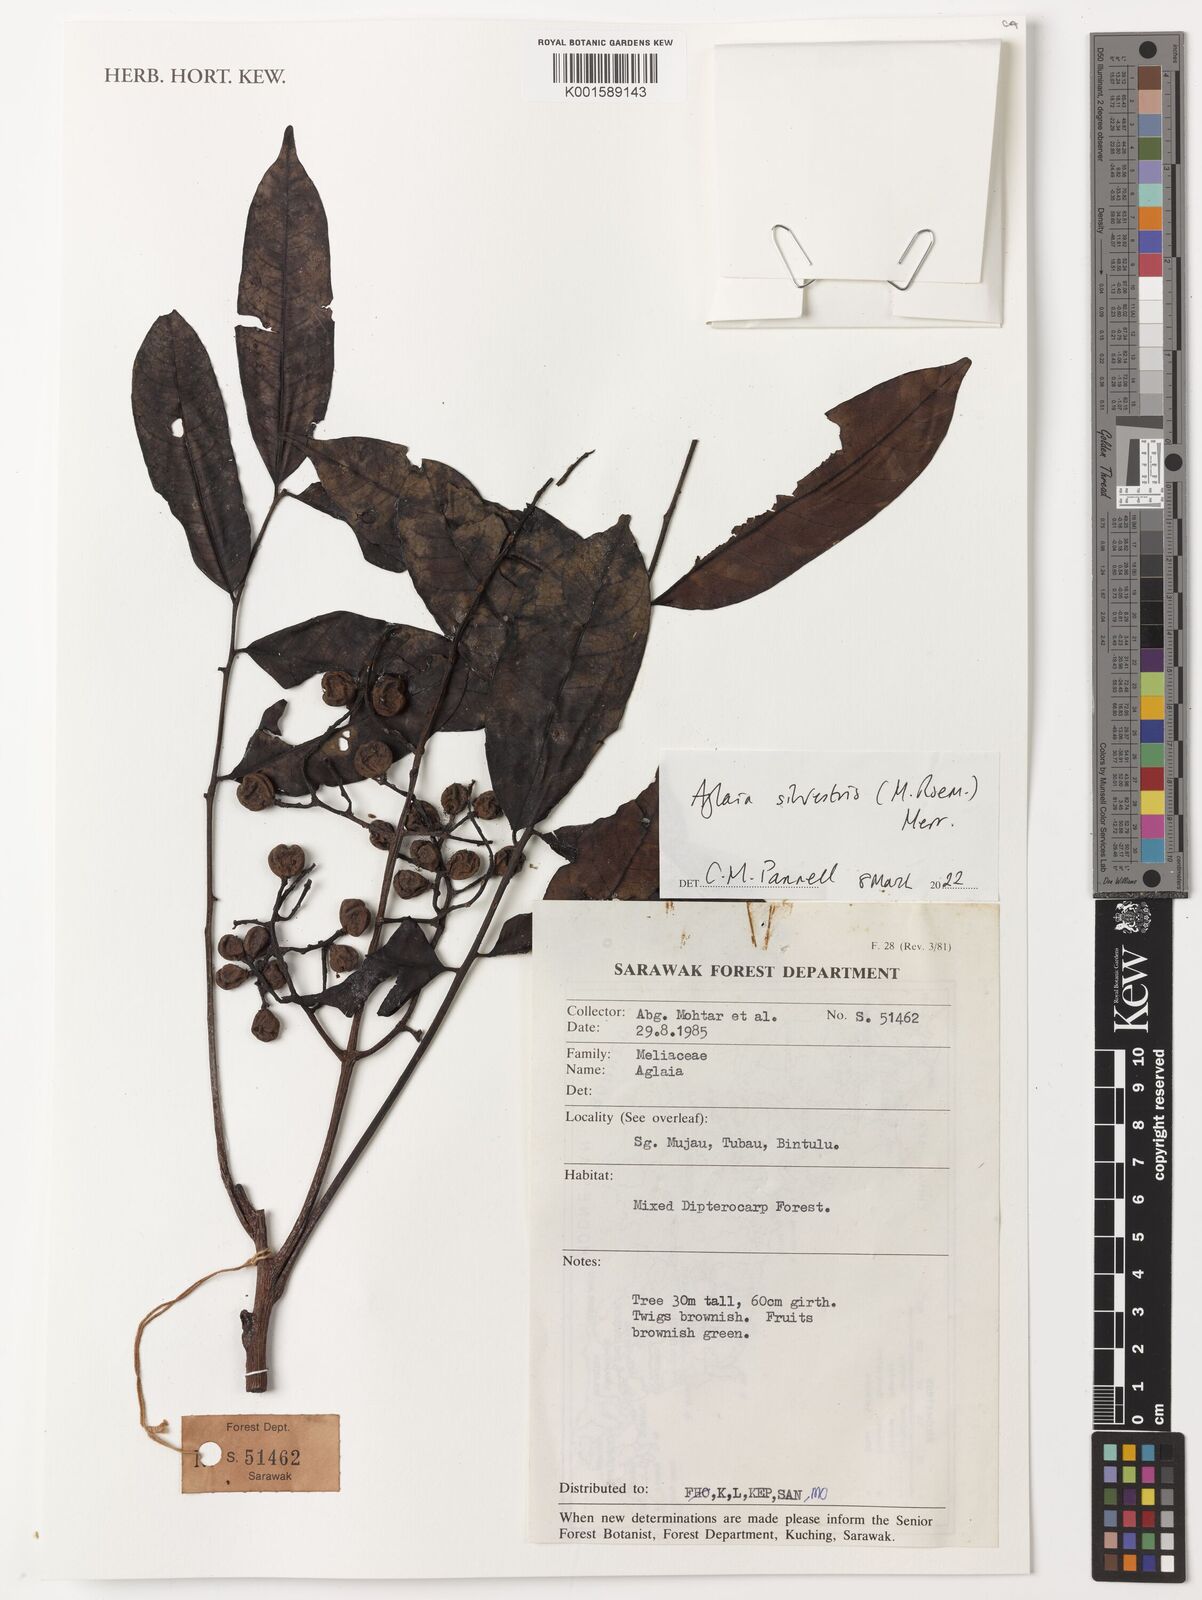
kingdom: Plantae
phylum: Tracheophyta
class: Magnoliopsida
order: Sapindales
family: Meliaceae
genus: Aglaia
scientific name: Aglaia silvestris
